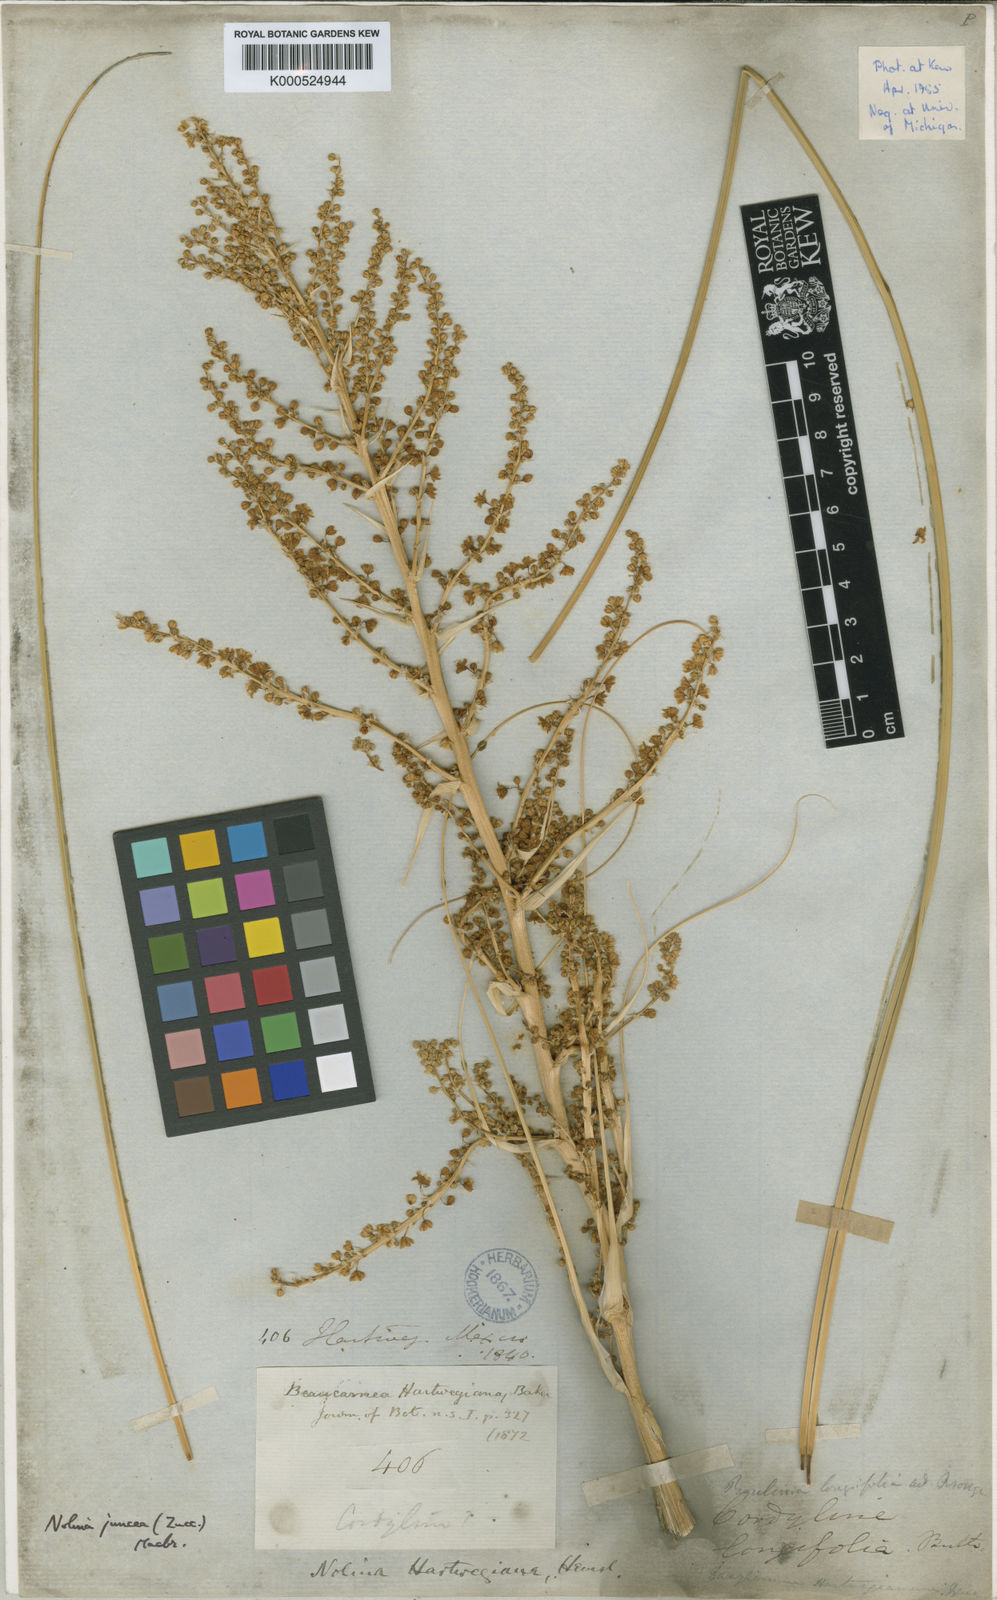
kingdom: Plantae
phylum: Tracheophyta
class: Liliopsida
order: Asparagales
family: Asparagaceae
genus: Nolina
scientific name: Nolina juncea
